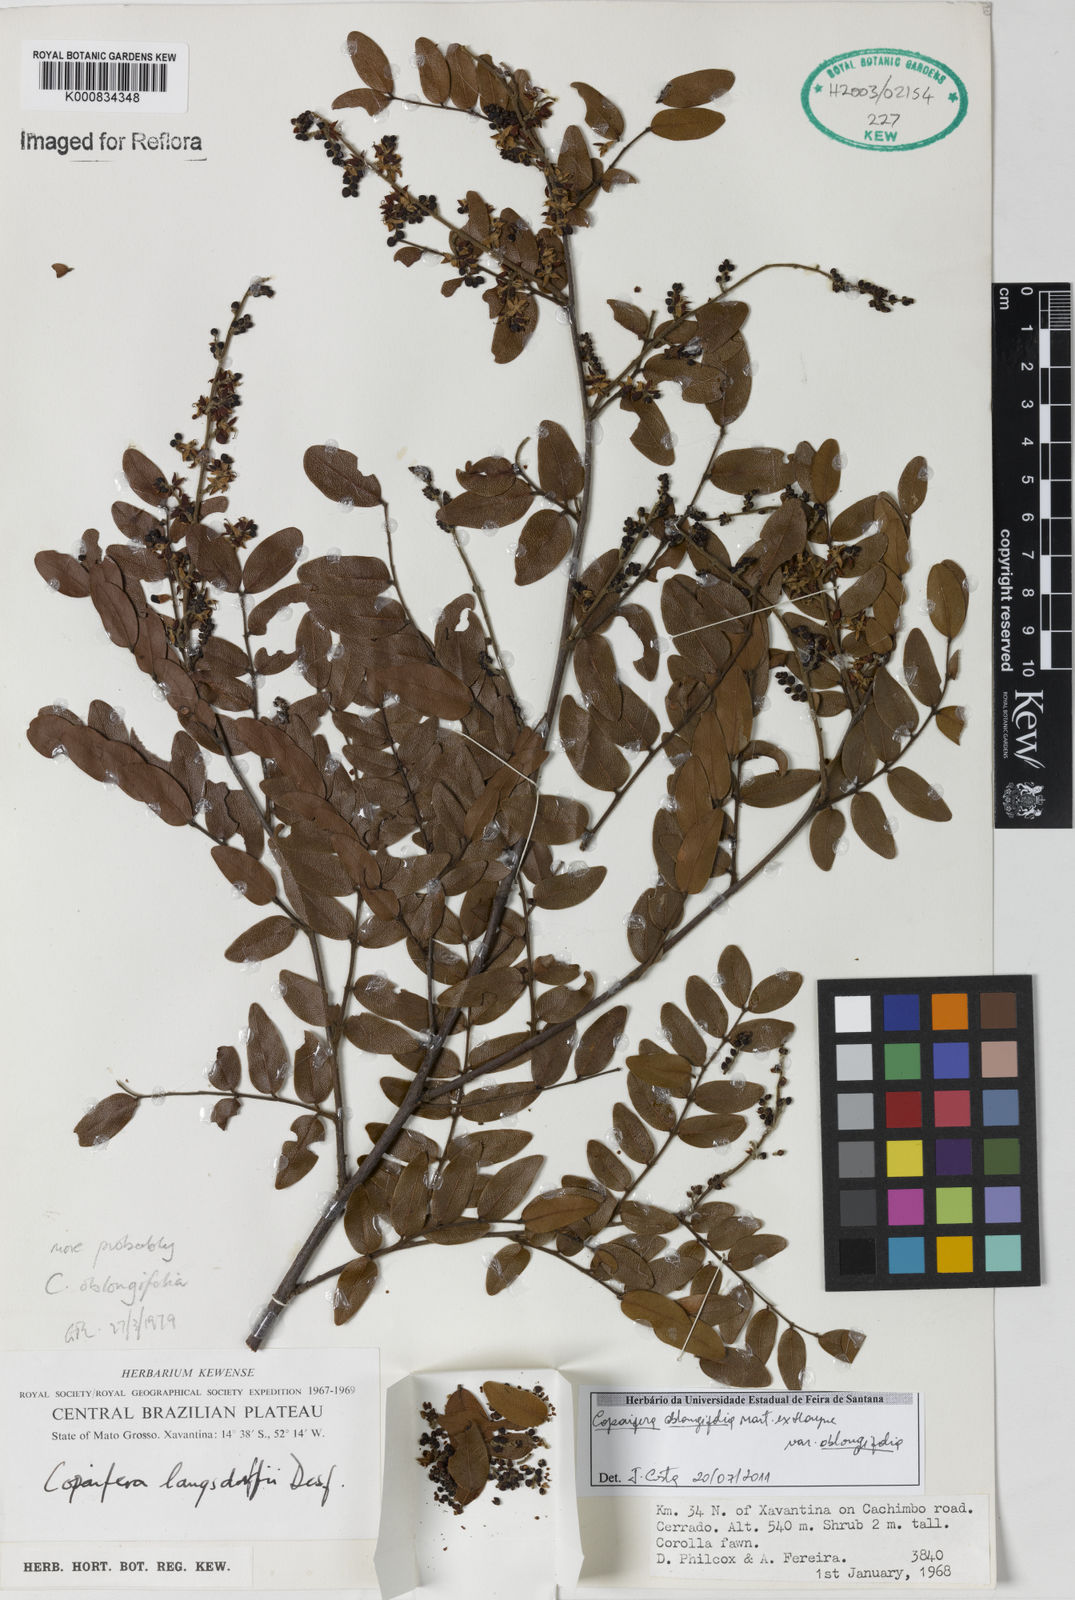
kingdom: Plantae
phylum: Tracheophyta
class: Magnoliopsida
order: Fabales
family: Fabaceae
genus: Copaifera
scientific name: Copaifera
